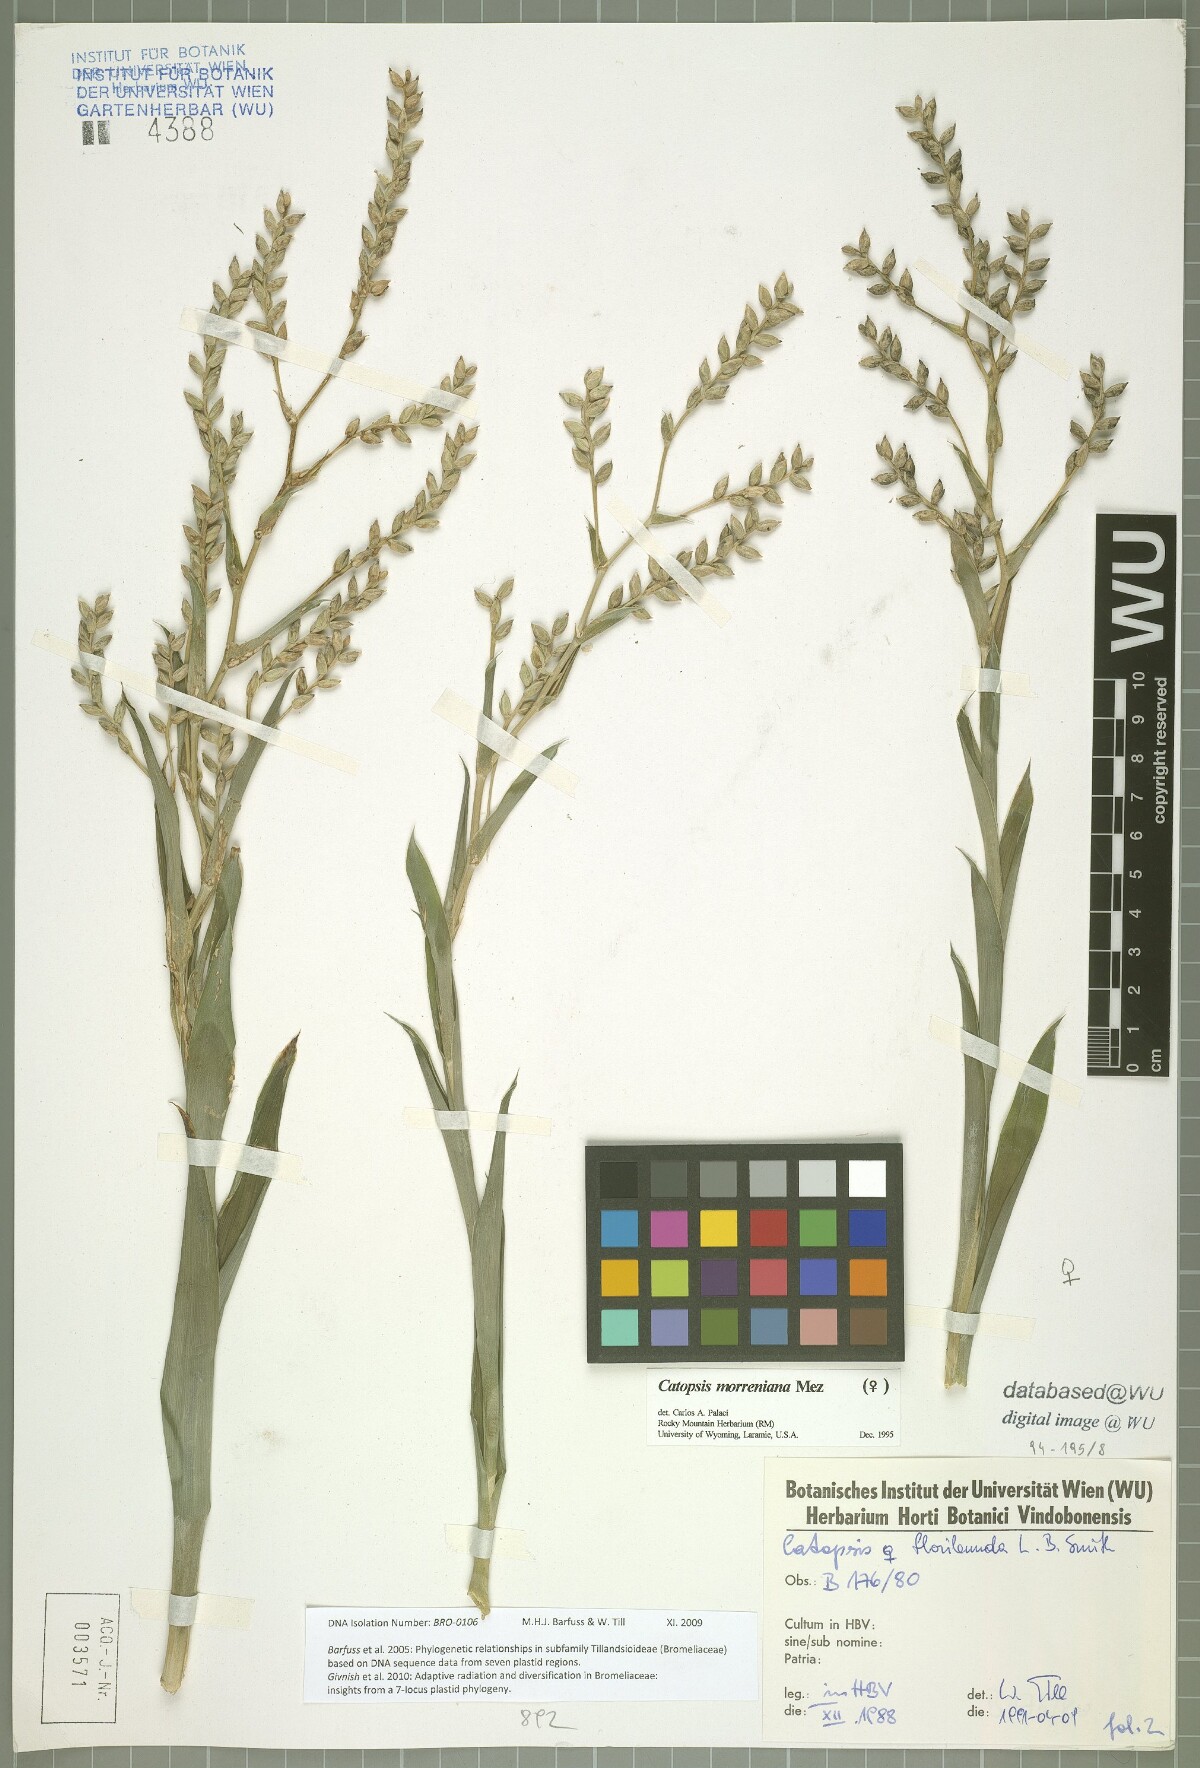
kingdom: Plantae
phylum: Tracheophyta
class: Liliopsida
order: Poales
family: Bromeliaceae
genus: Catopsis
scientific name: Catopsis morreniana
